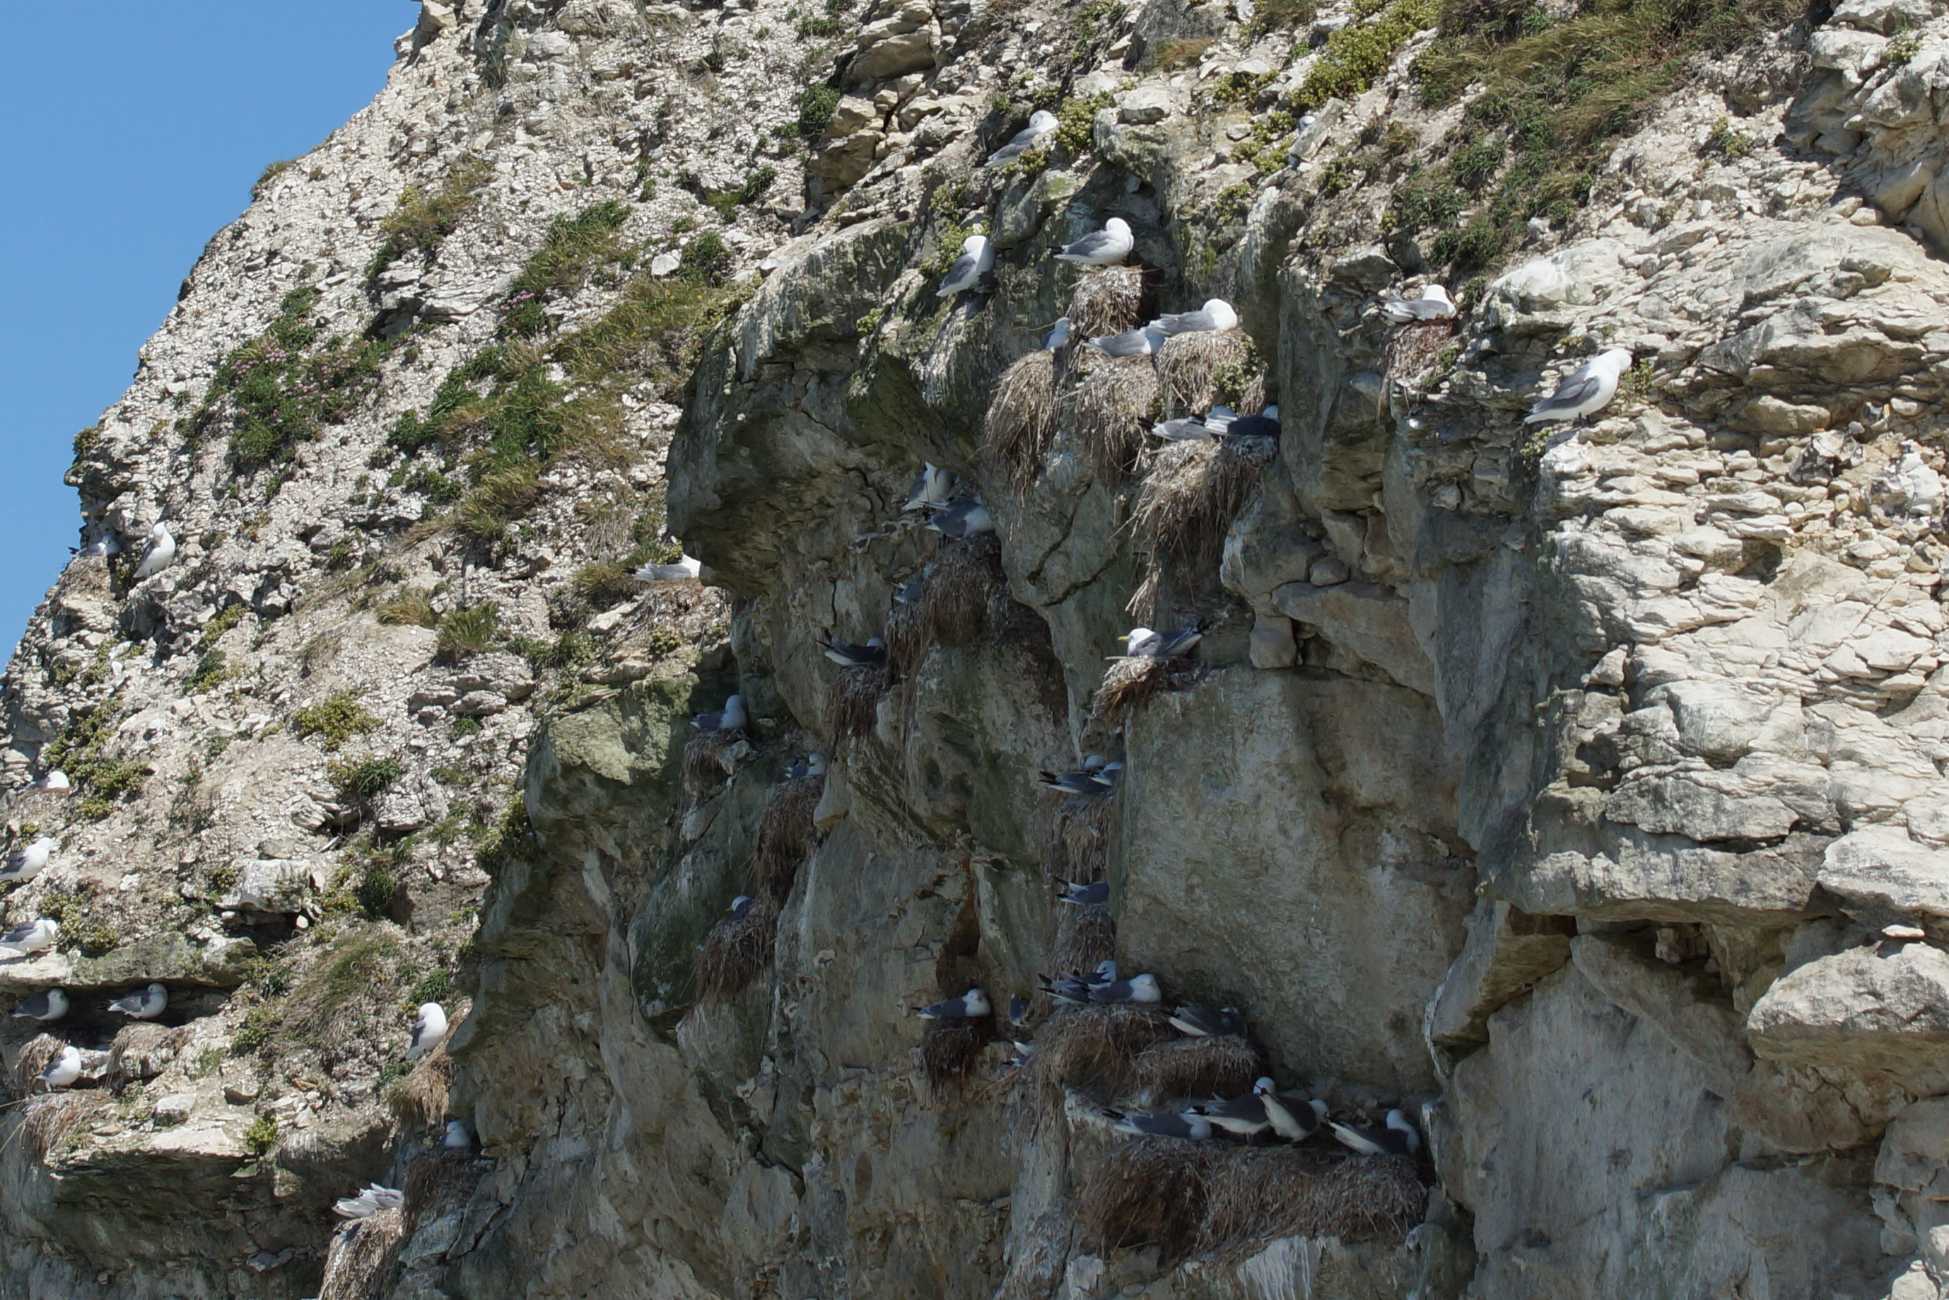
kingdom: Animalia
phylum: Chordata
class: Aves
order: Charadriiformes
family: Laridae
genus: Rissa
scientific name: Rissa tridactyla
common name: Ride
